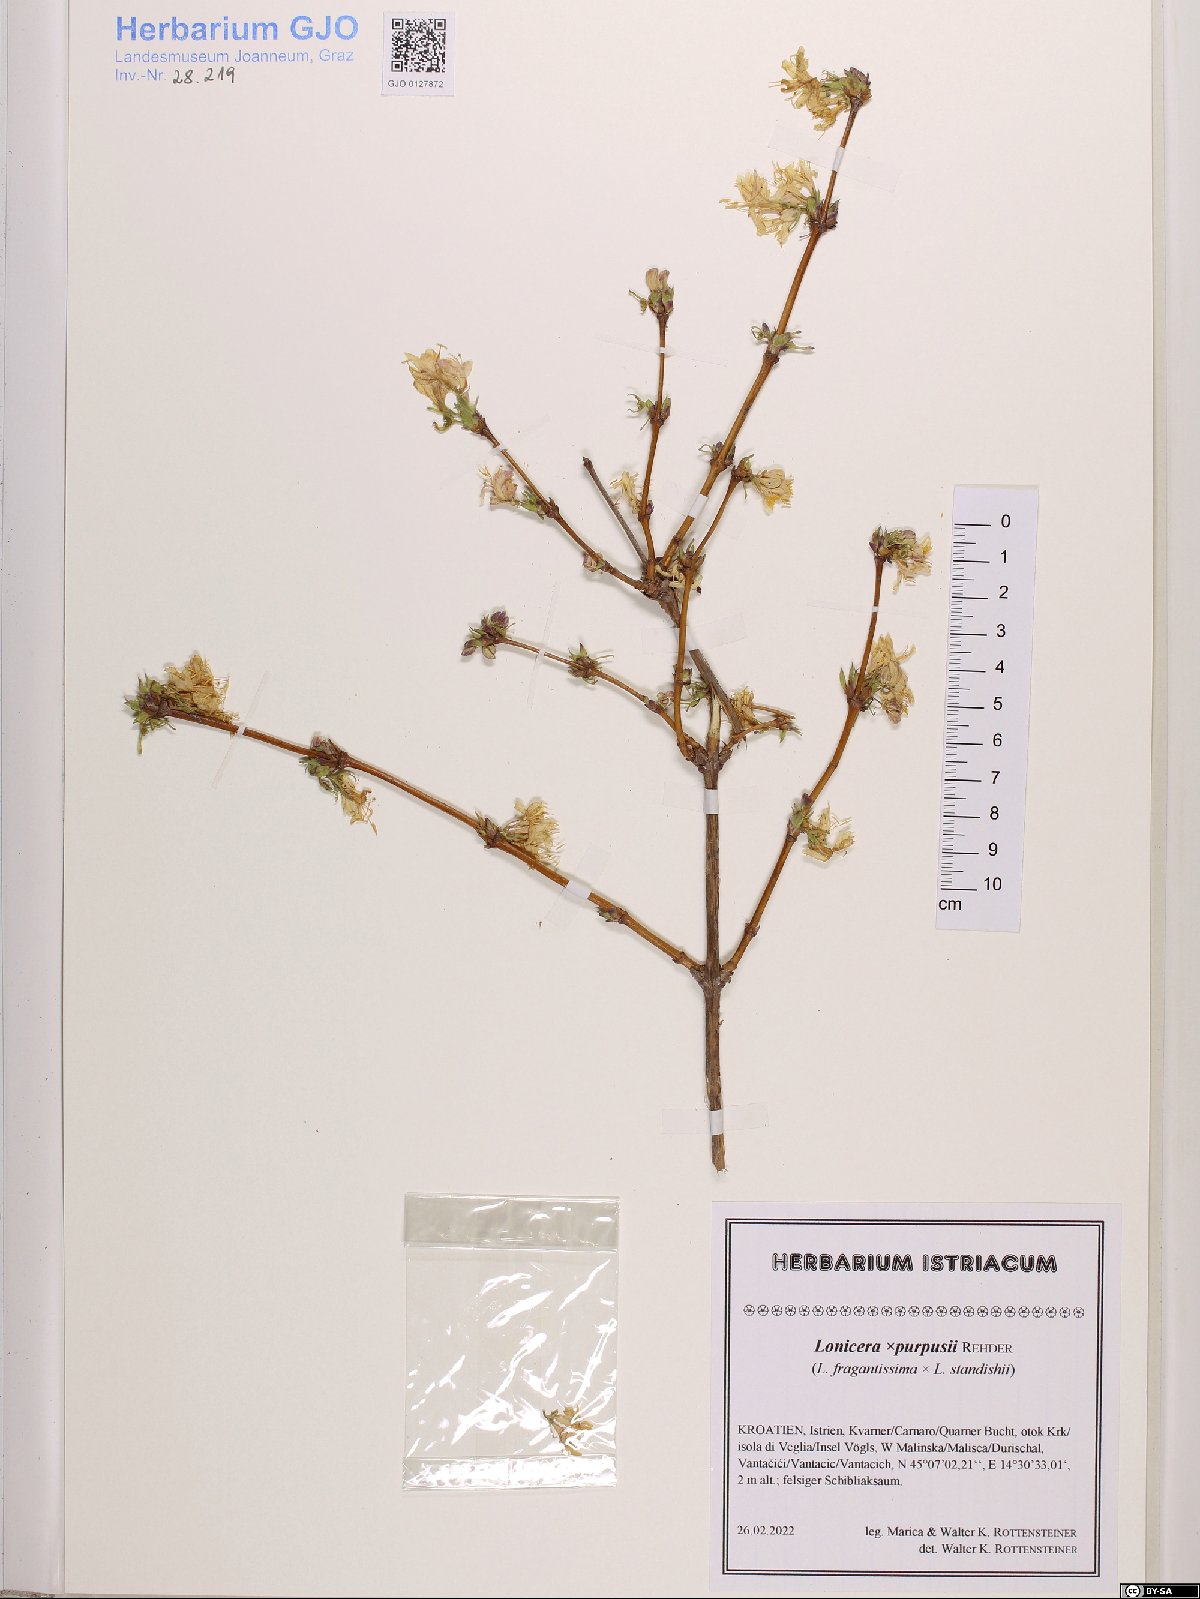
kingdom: Plantae
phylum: Tracheophyta
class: Magnoliopsida
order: Dipsacales
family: Caprifoliaceae
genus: Lonicera
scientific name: Lonicera purpusii
